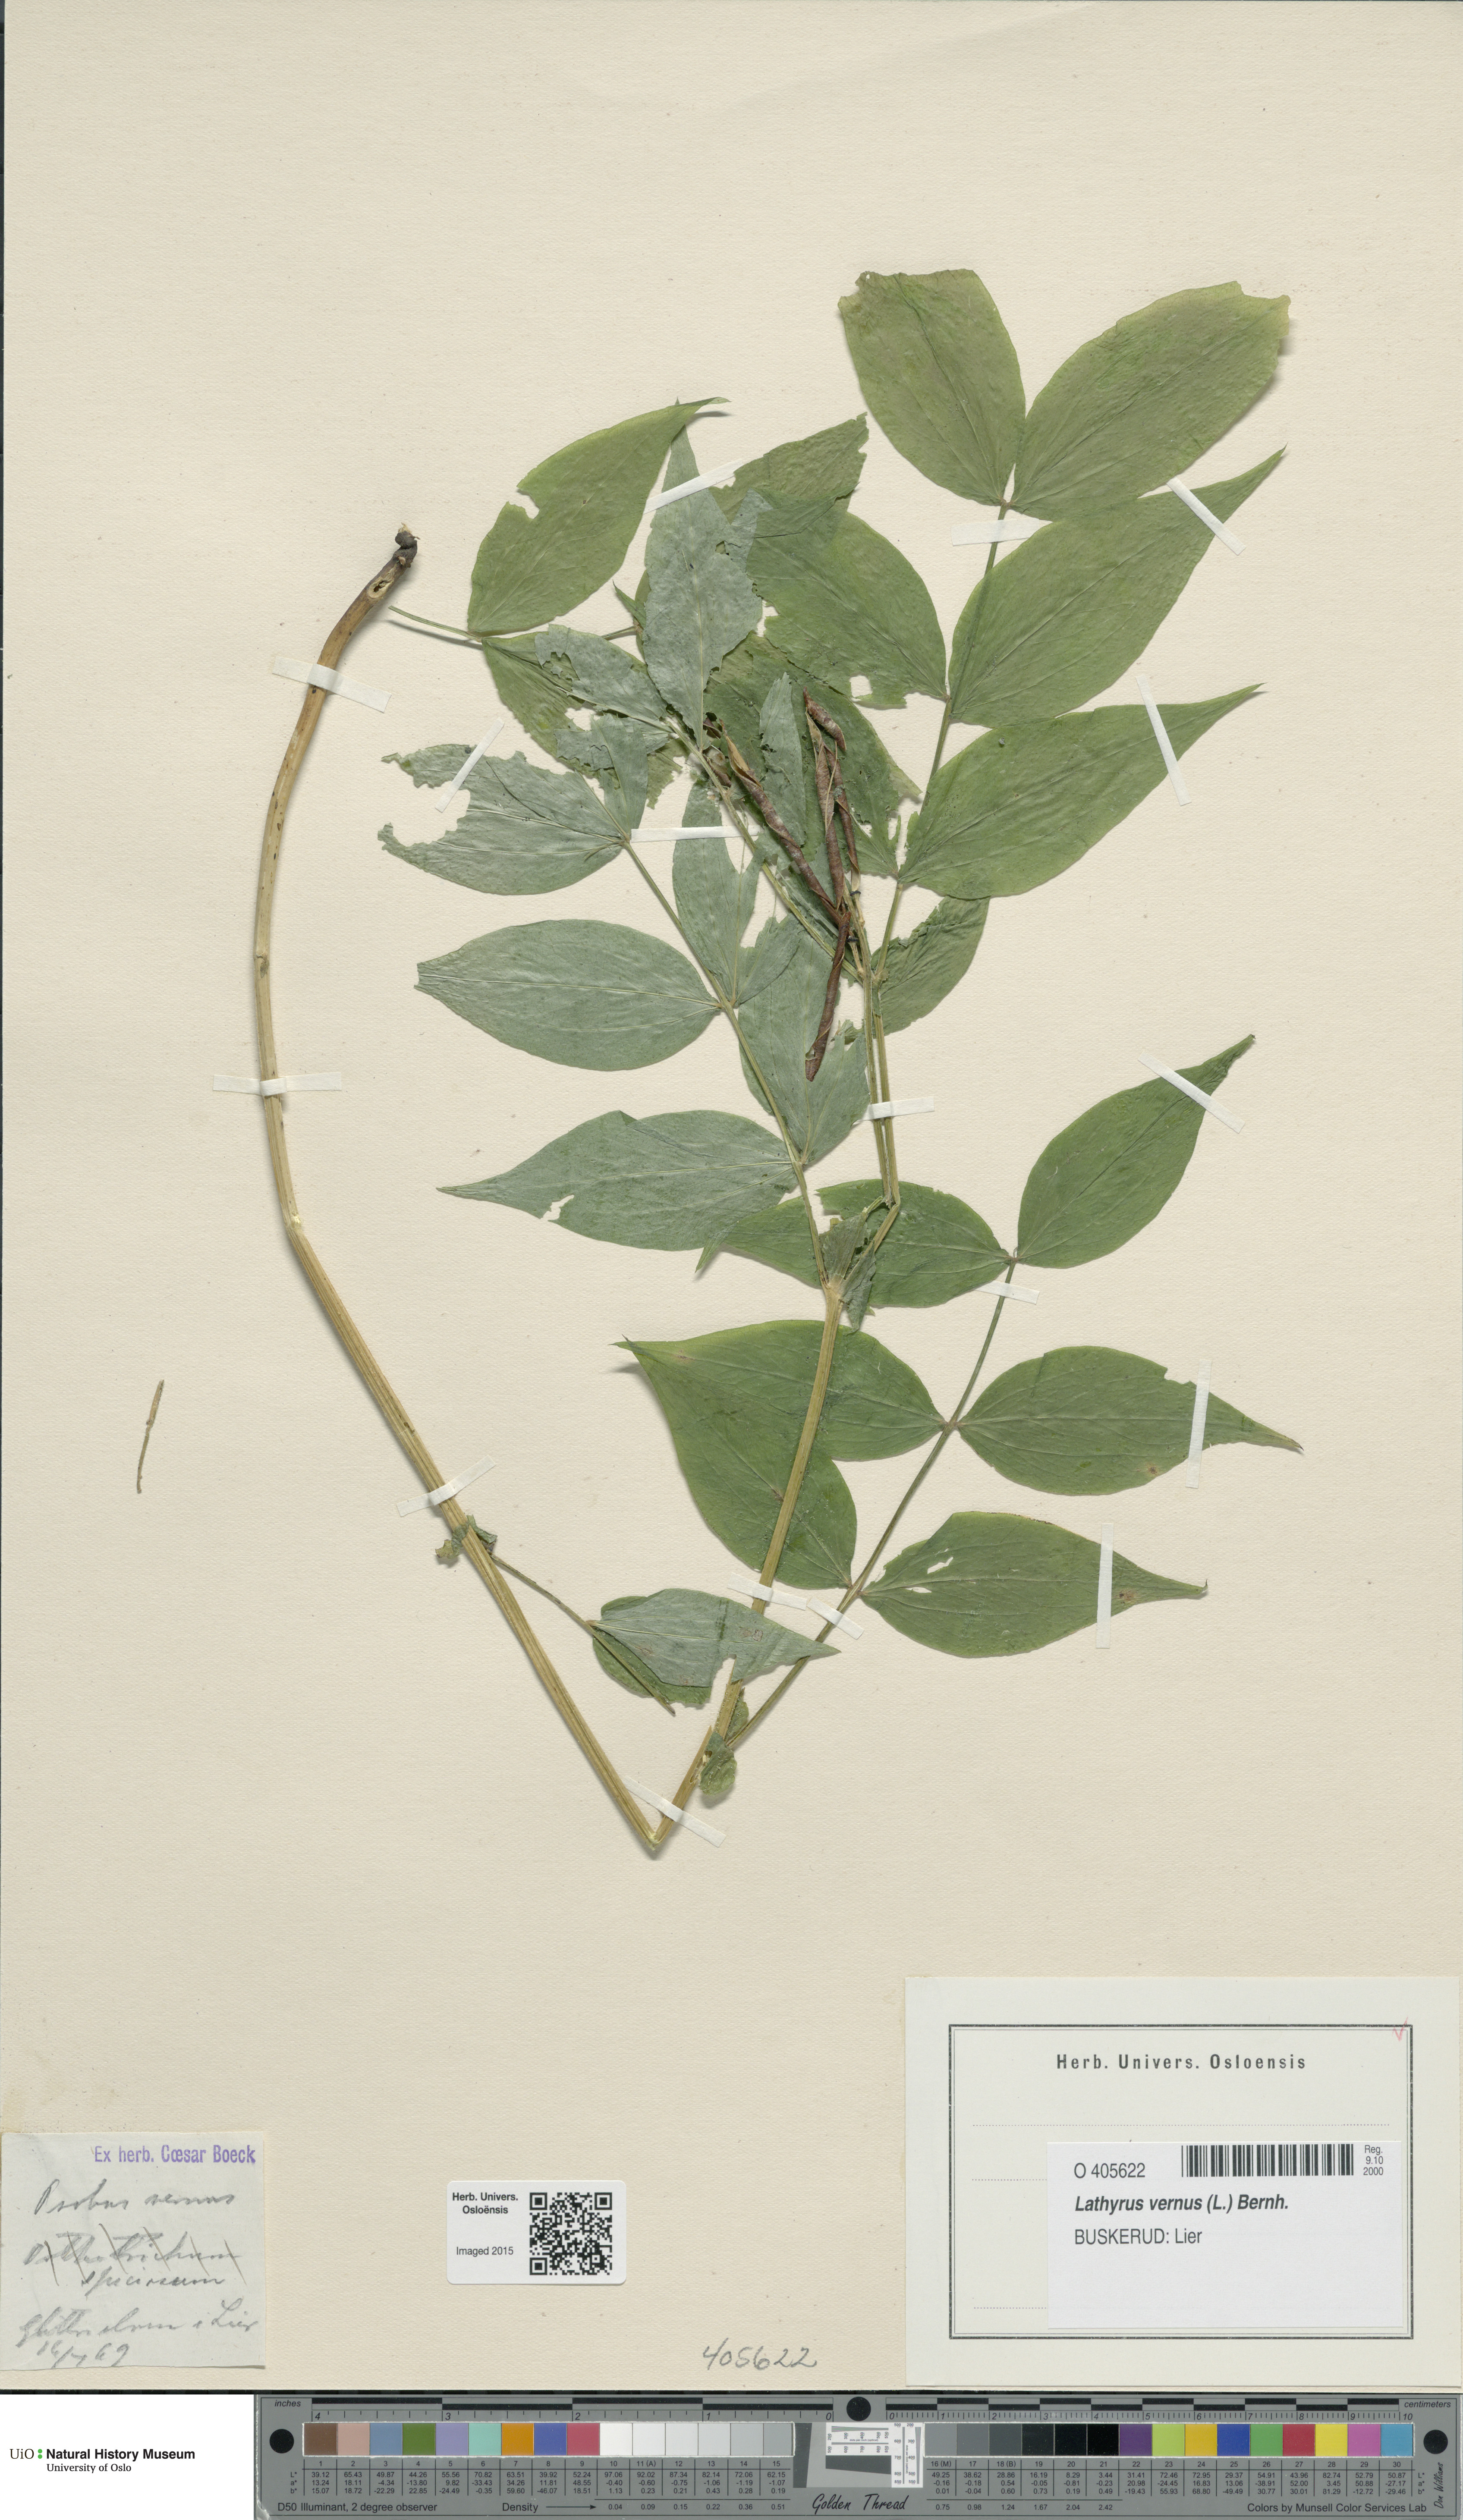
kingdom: Plantae
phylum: Tracheophyta
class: Magnoliopsida
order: Fabales
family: Fabaceae
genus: Lathyrus
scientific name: Lathyrus vernus
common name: Spring pea
